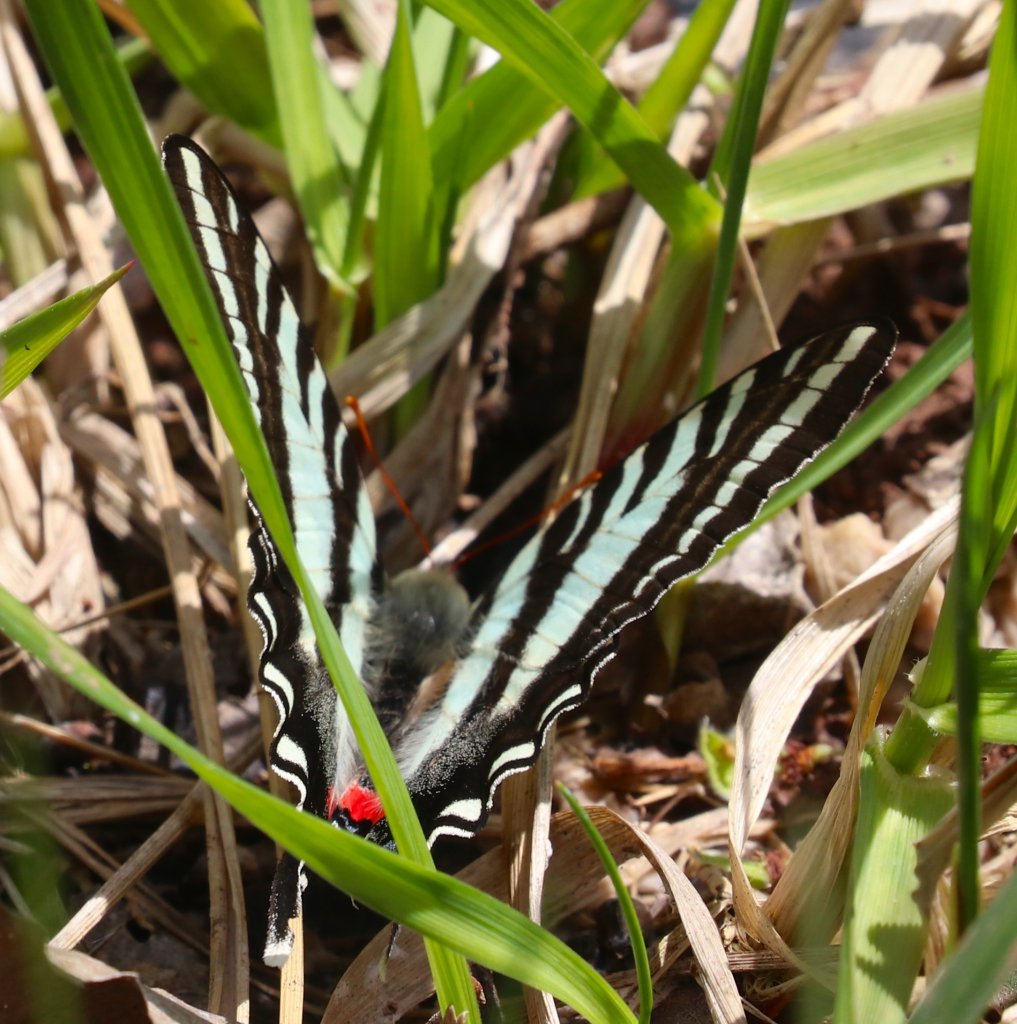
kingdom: Animalia
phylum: Arthropoda
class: Insecta
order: Lepidoptera
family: Papilionidae
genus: Protographium
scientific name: Protographium marcellus
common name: Zebra Swallowtail
